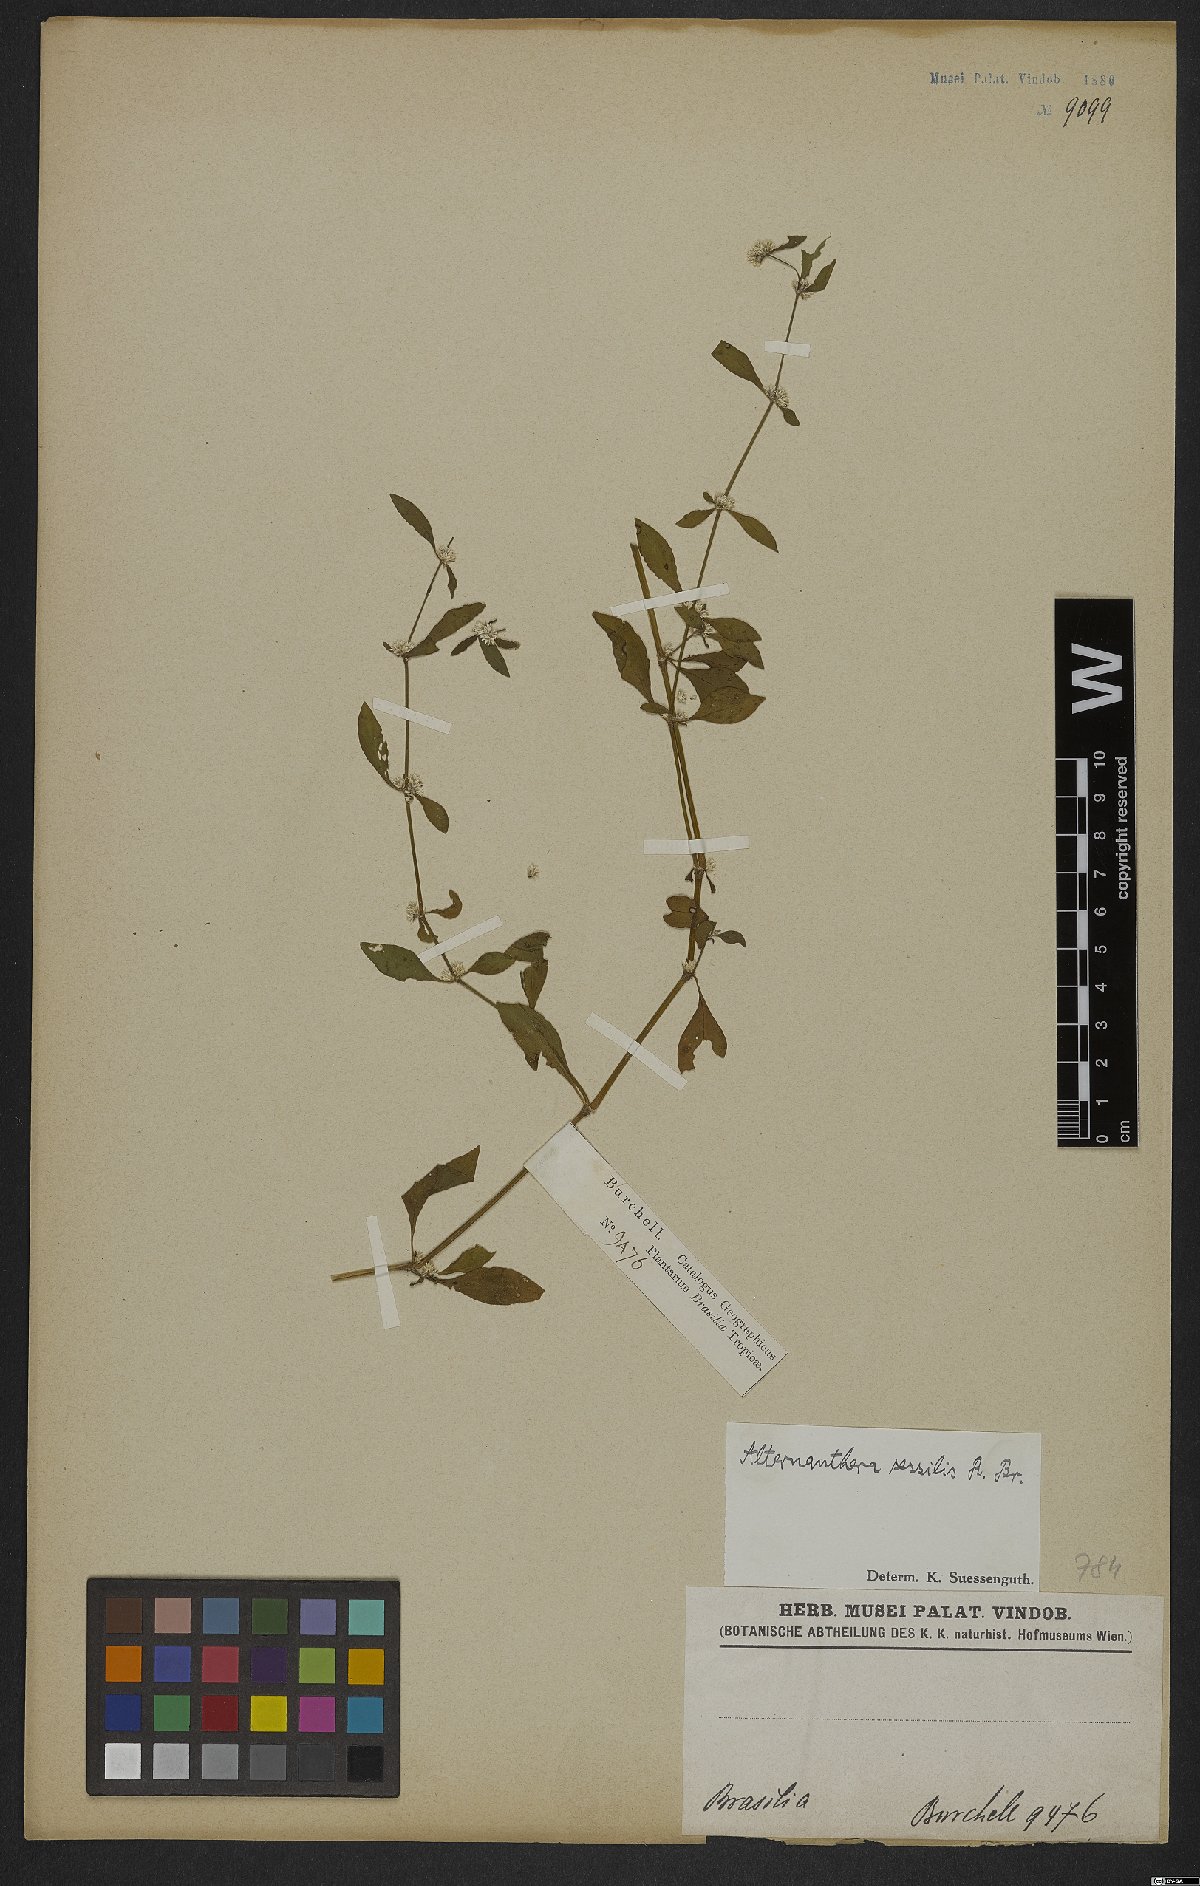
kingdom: Plantae
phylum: Tracheophyta
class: Magnoliopsida
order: Caryophyllales
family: Amaranthaceae
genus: Alternanthera
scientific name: Alternanthera sessilis
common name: Sessile joyweed
